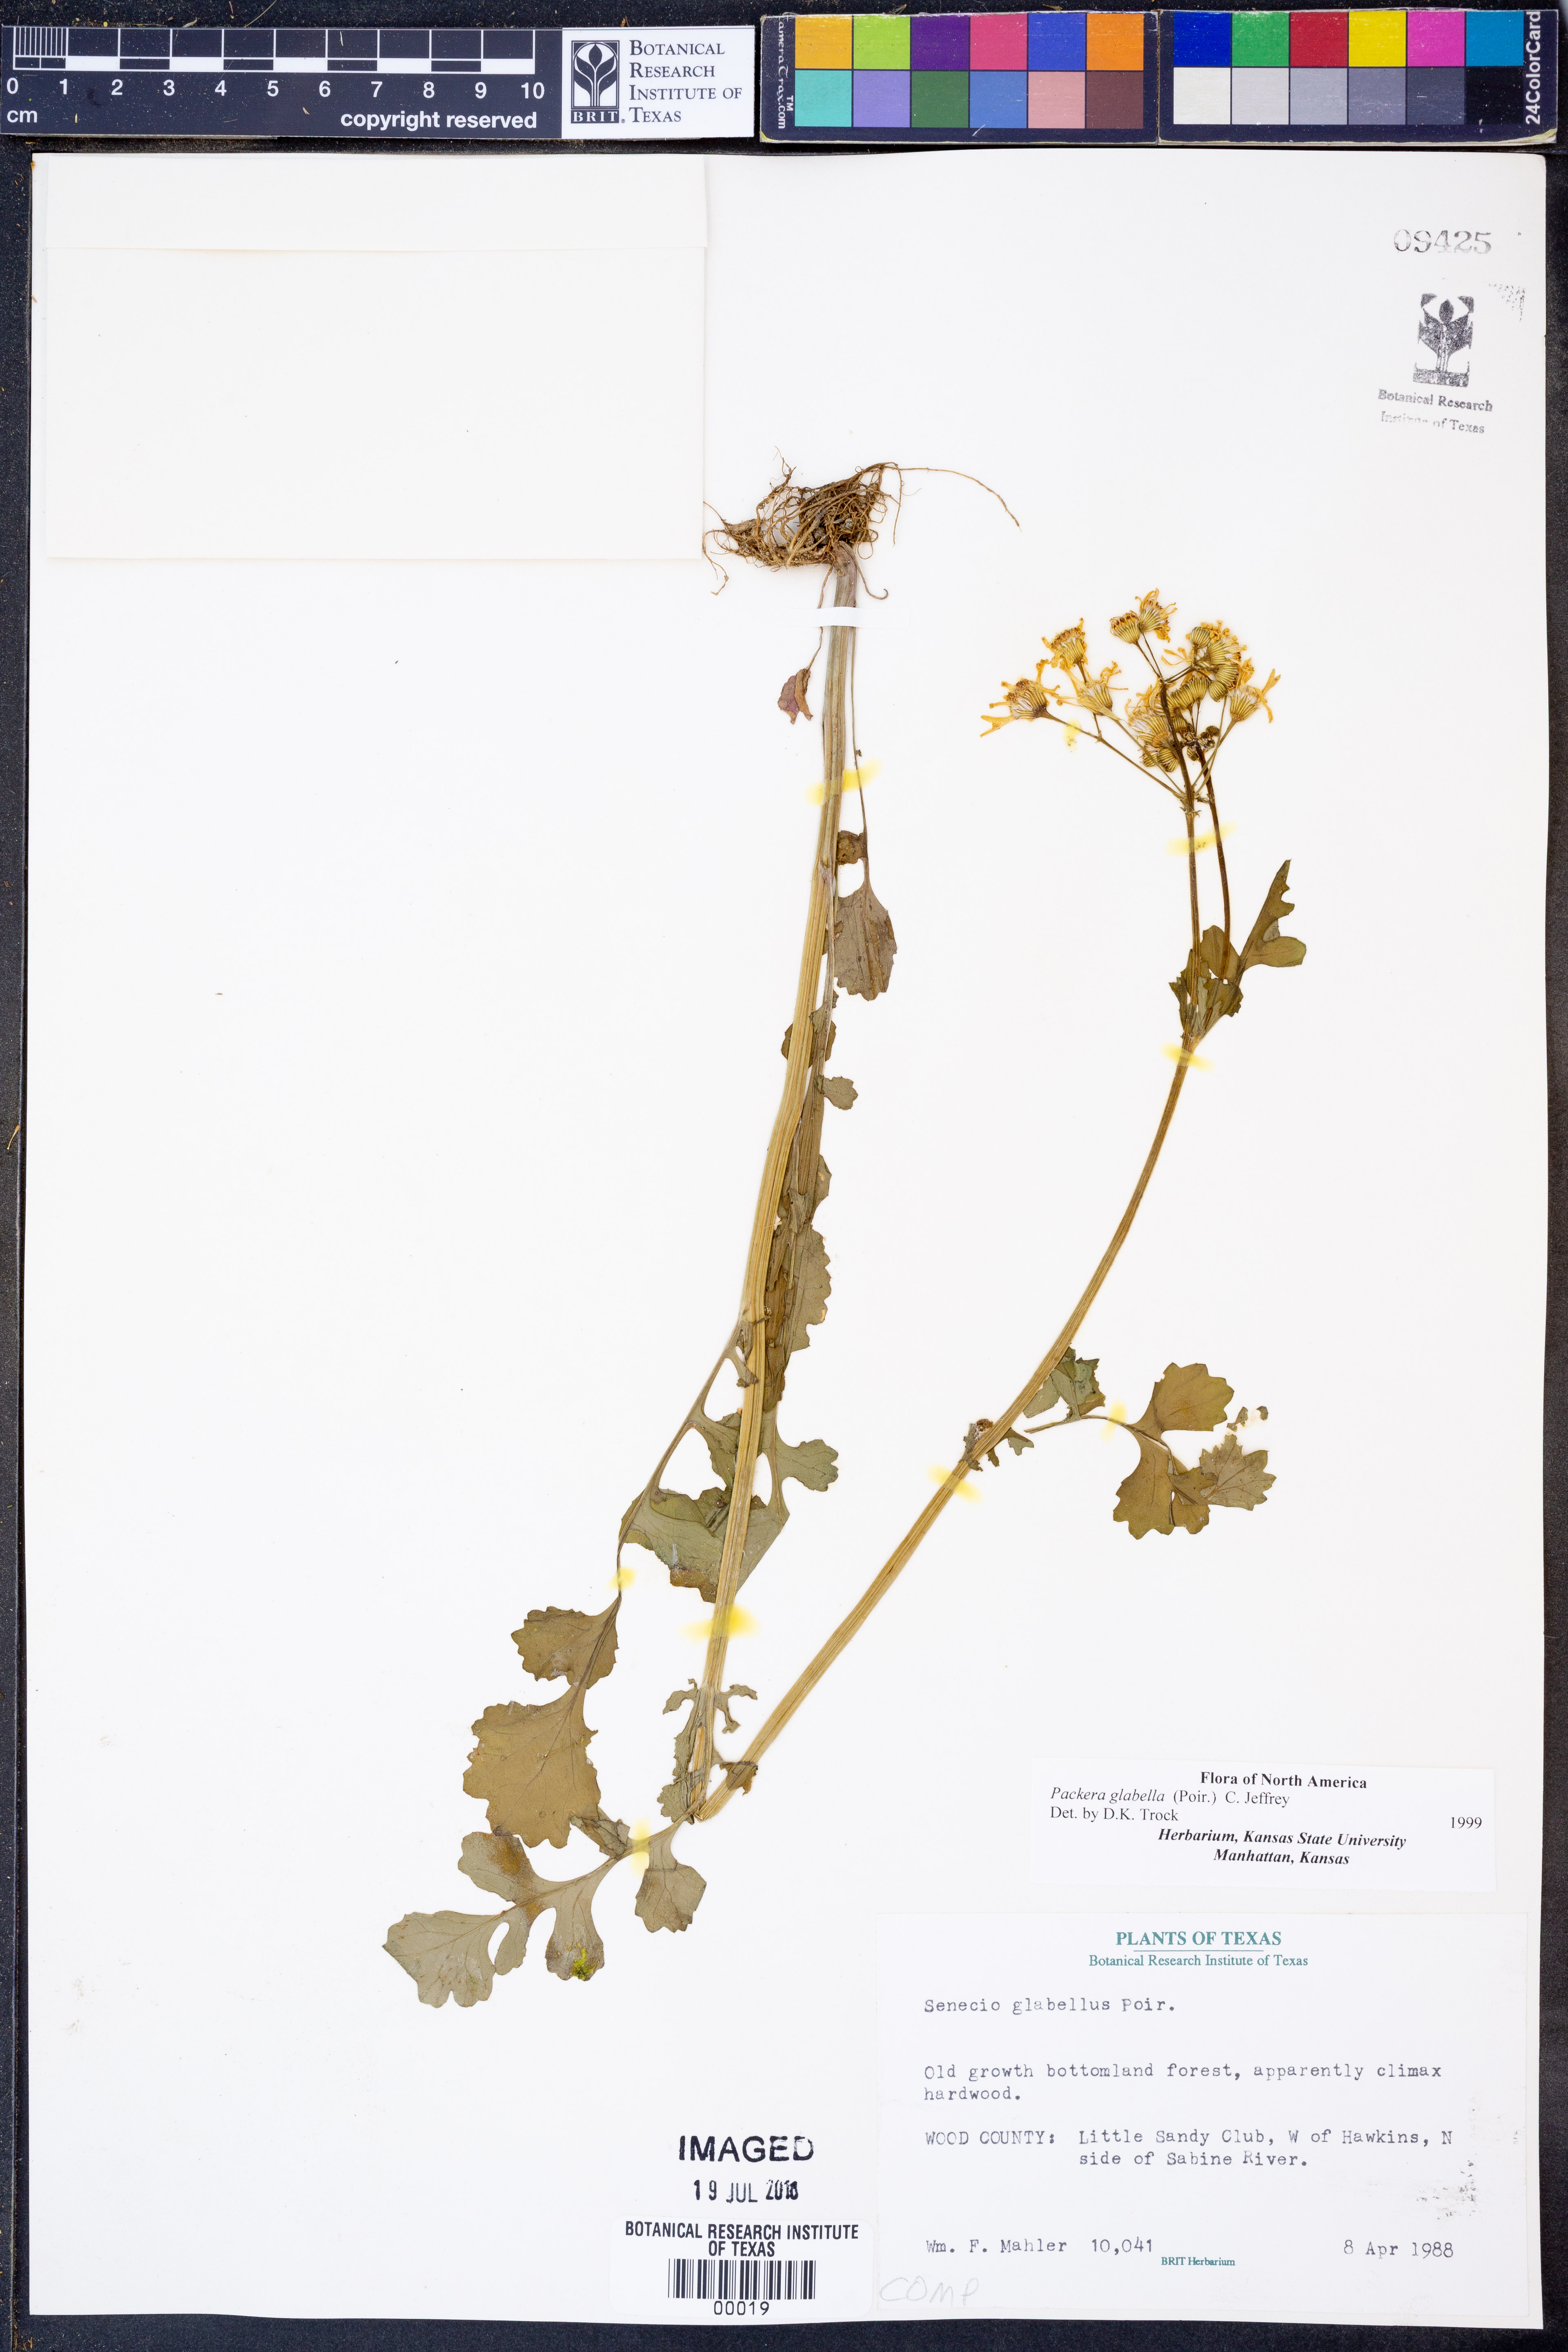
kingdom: Plantae
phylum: Tracheophyta
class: Magnoliopsida
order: Asterales
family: Asteraceae
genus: Packera
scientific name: Packera glabella
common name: Butterweed
